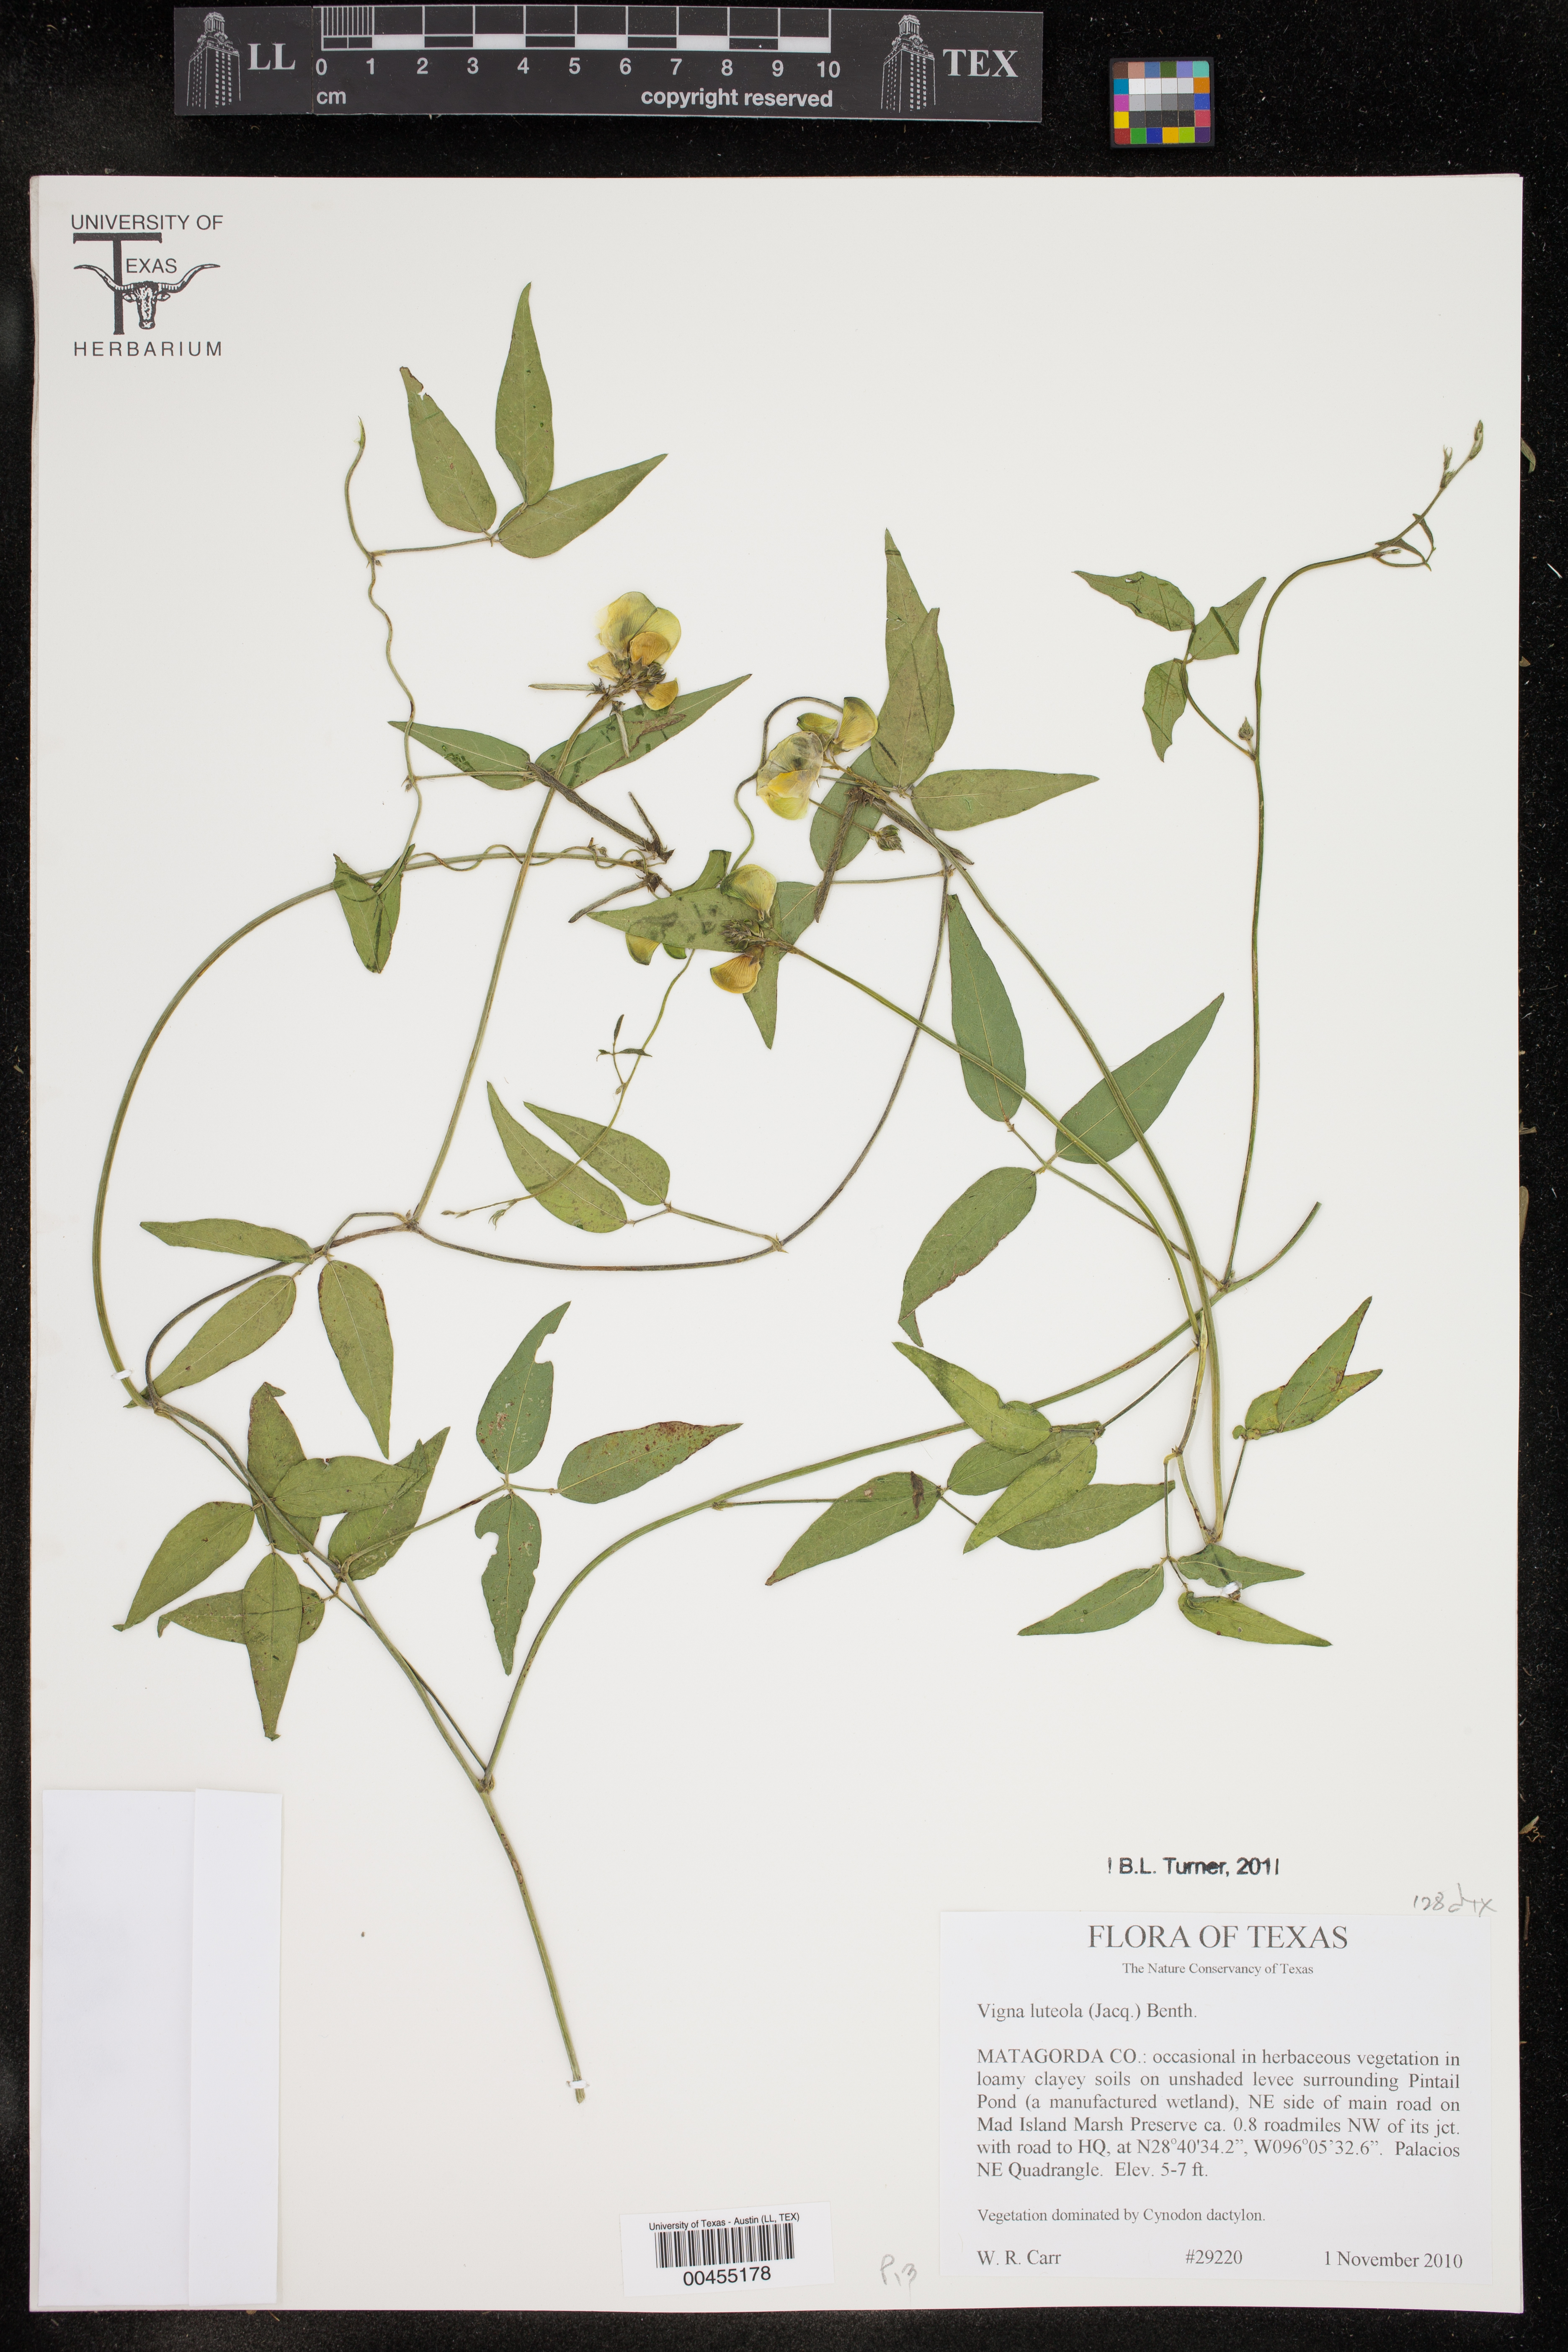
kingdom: Plantae
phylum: Tracheophyta
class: Magnoliopsida
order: Fabales
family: Fabaceae
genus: Vigna
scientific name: Vigna luteola
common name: Hairypod cowpea
